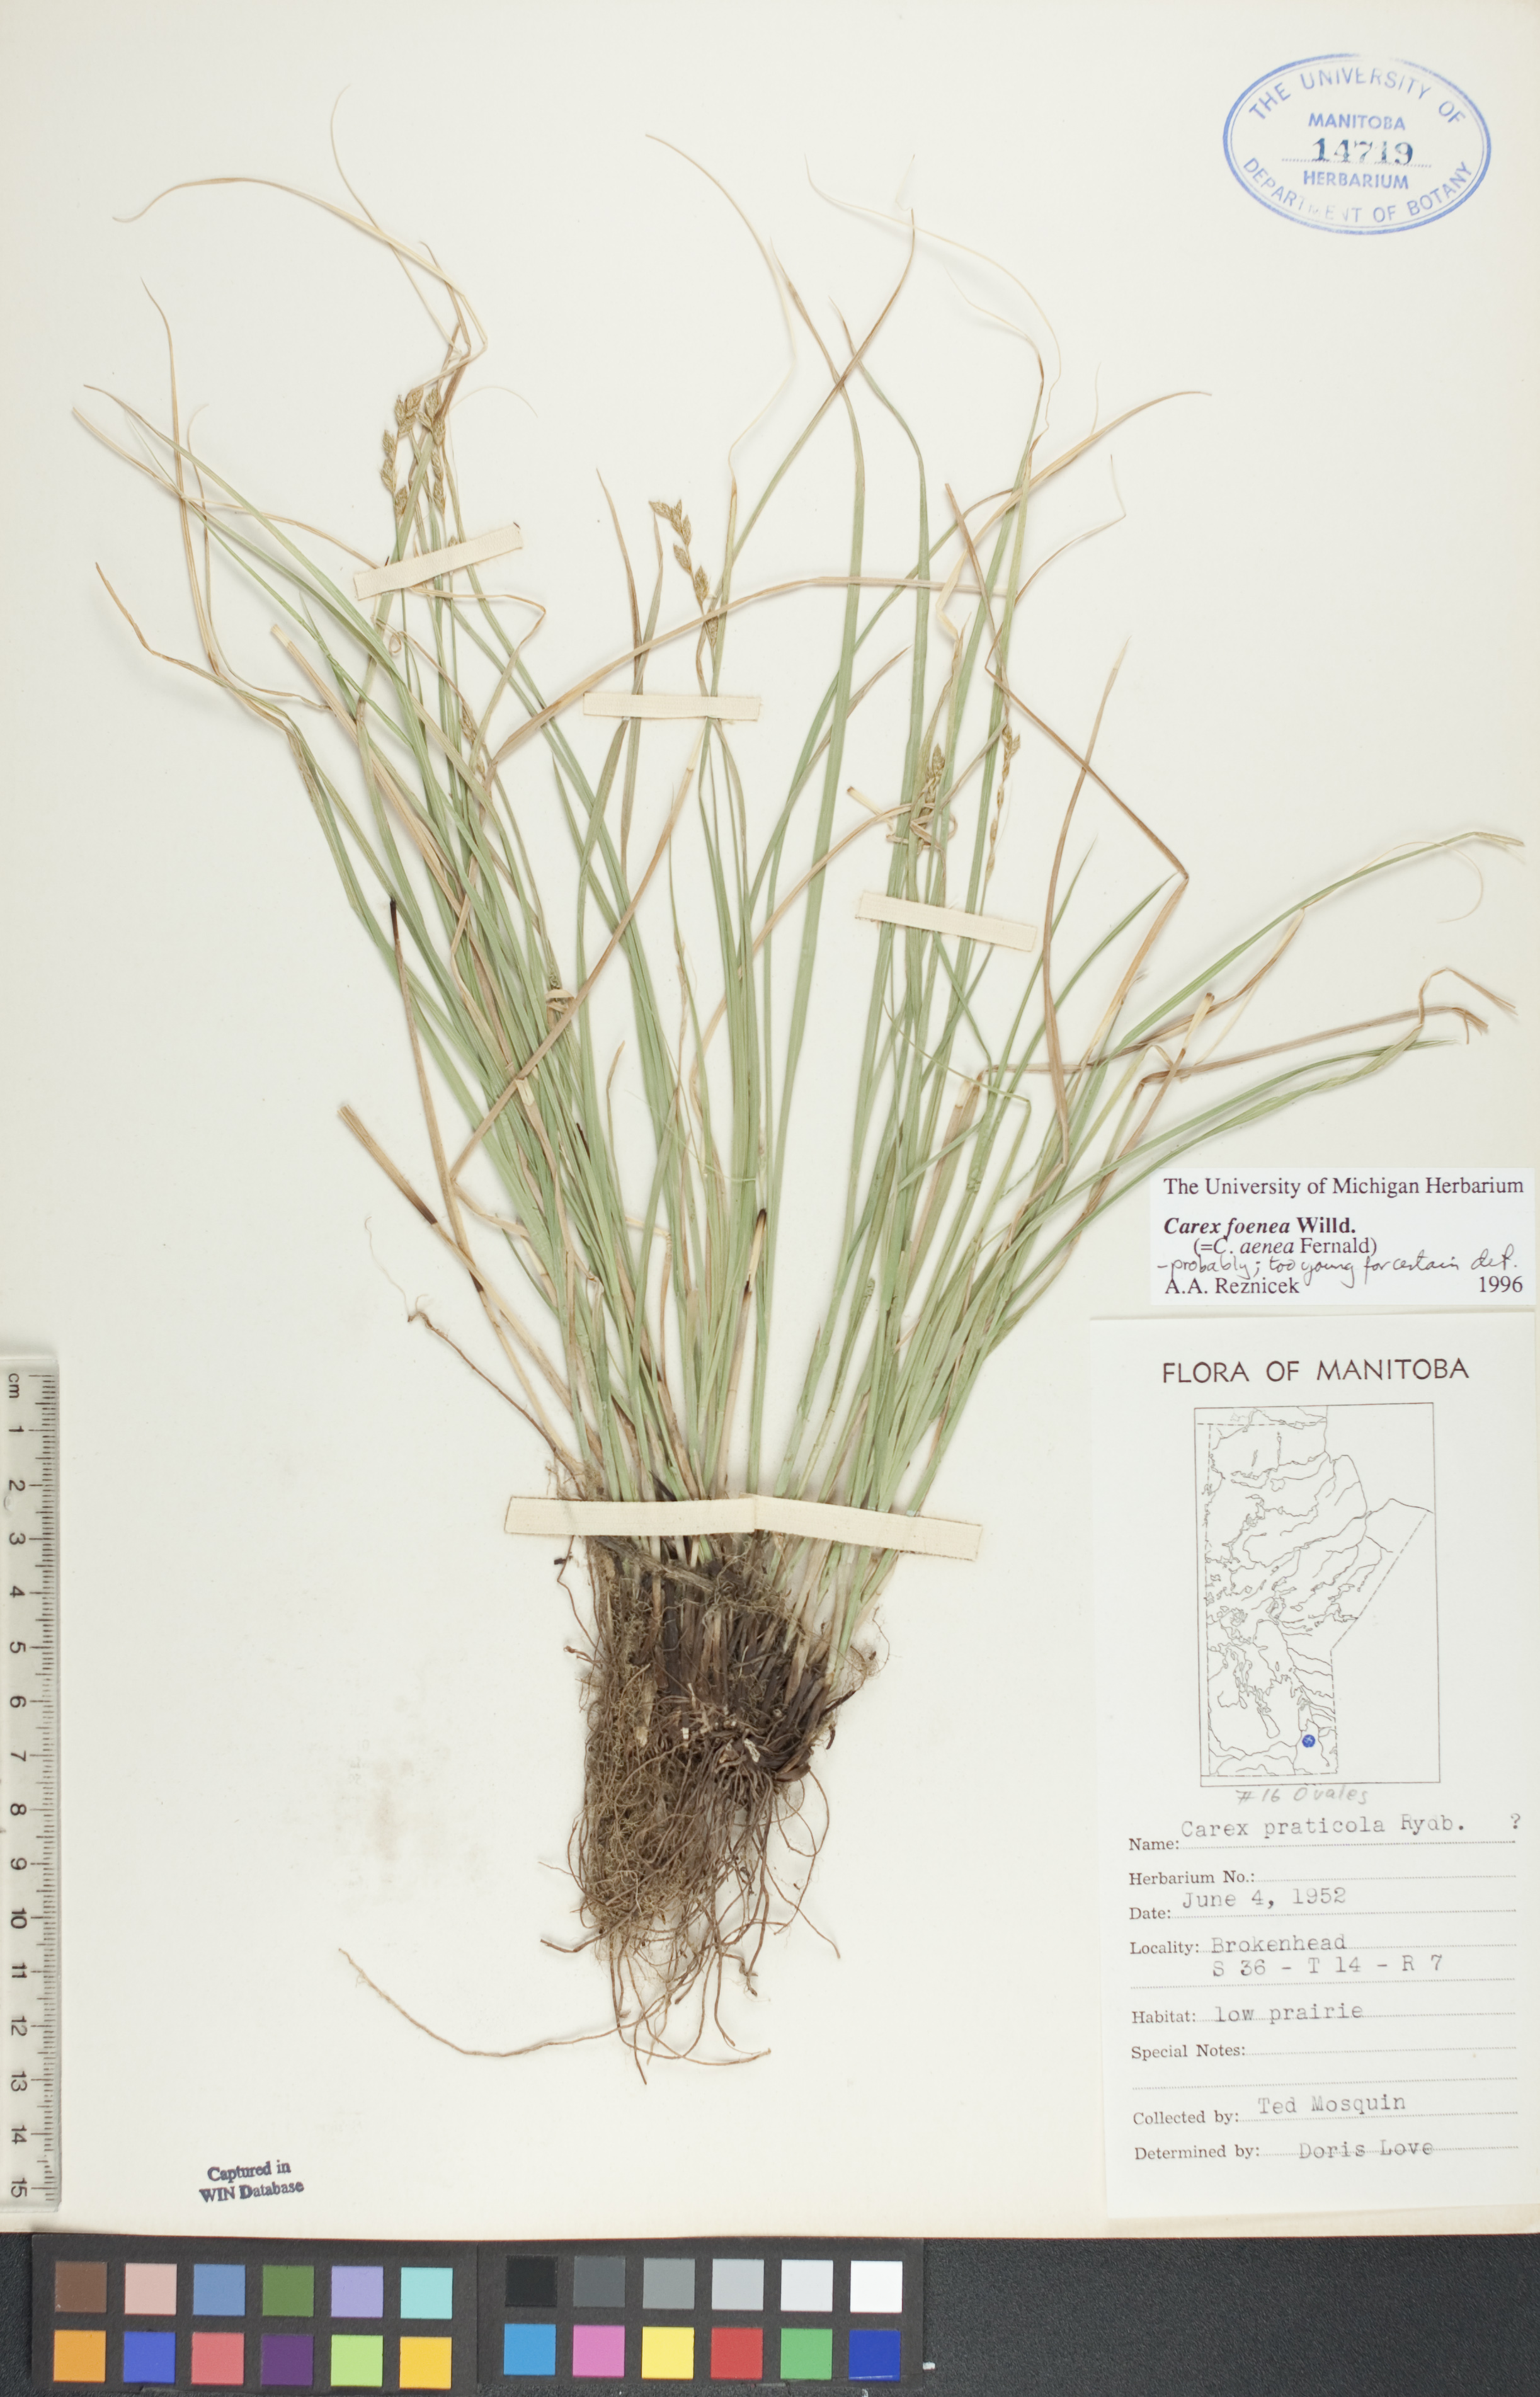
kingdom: Plantae
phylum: Tracheophyta
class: Liliopsida
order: Poales
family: Cyperaceae
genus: Carex
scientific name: Carex praticola
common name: Large-fruited oval sedge
